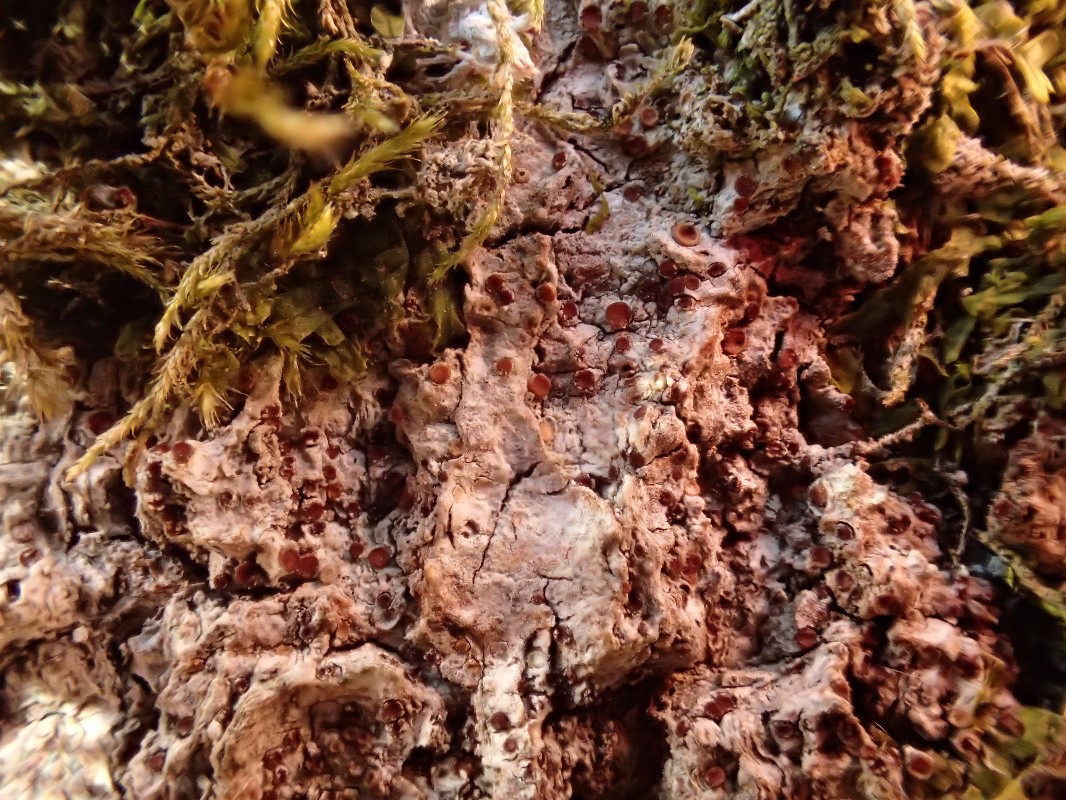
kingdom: Fungi
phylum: Ascomycota
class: Lecanoromycetes
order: Gyalectales
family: Gyalectaceae
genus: Pachyphiale
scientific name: Pachyphiale carneola
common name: rødbrun gammelskovslav
